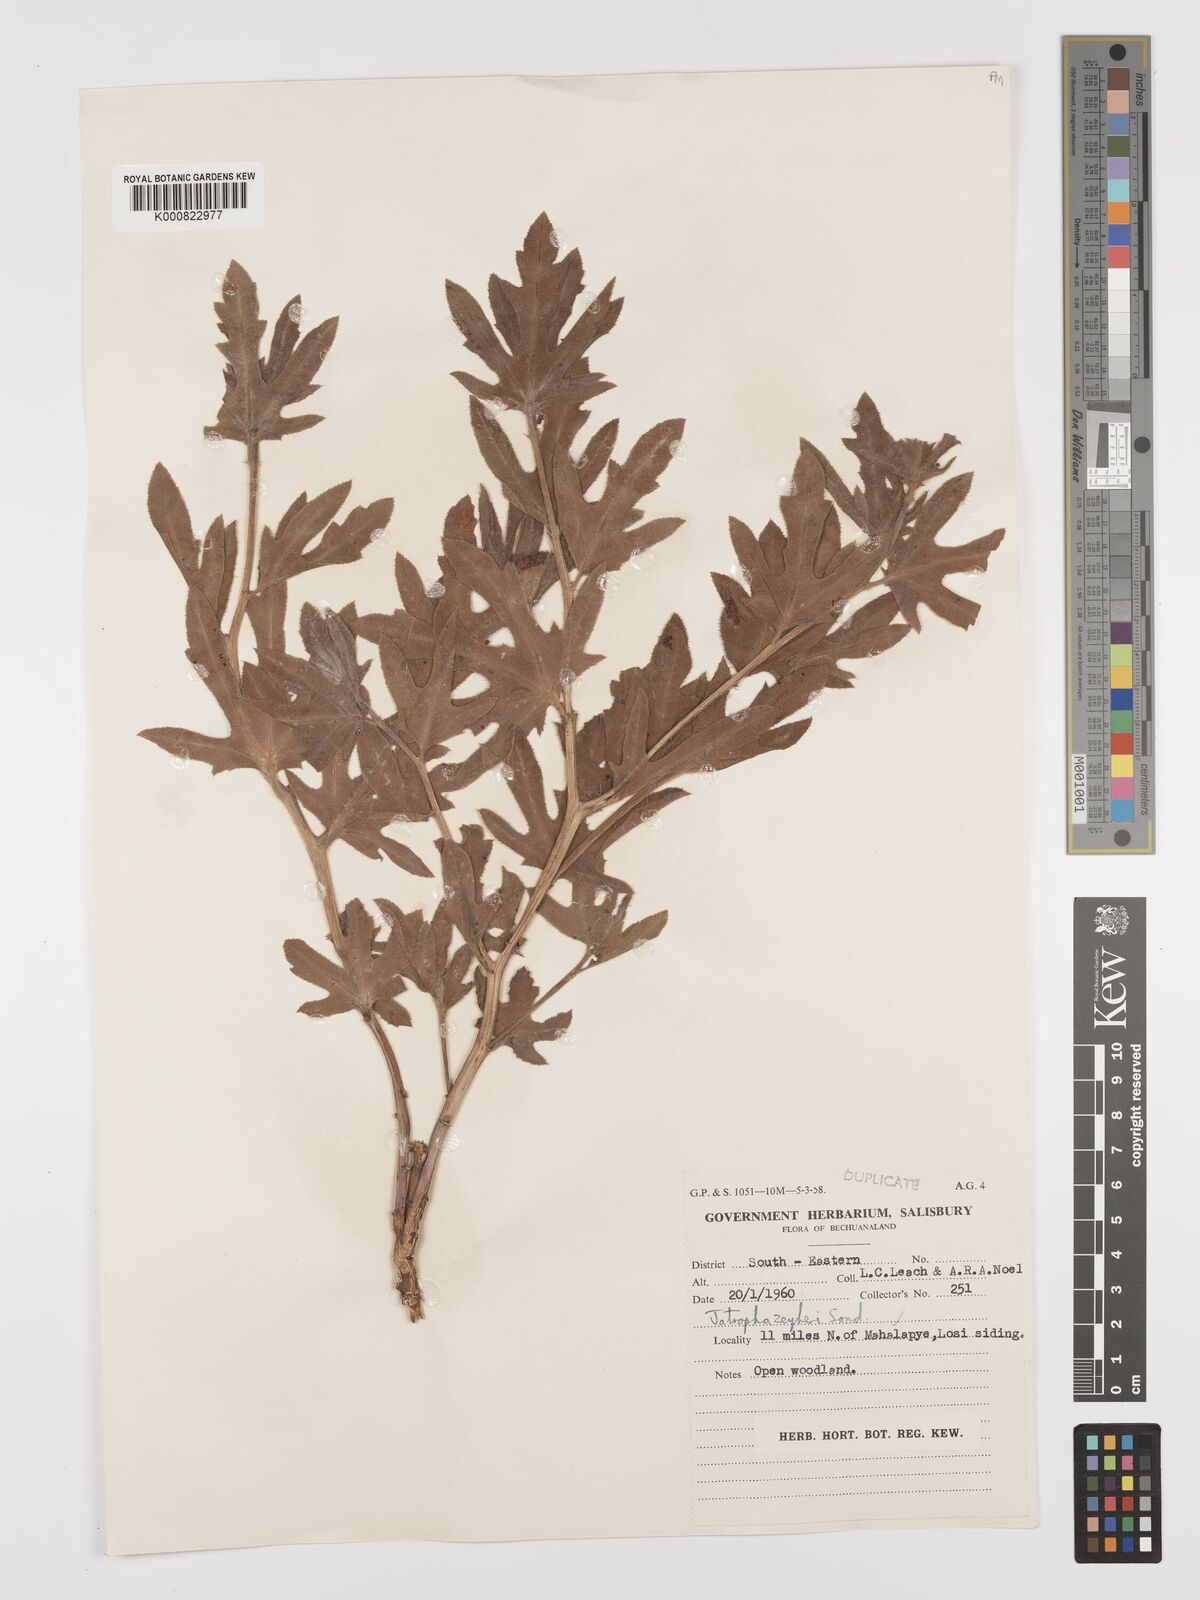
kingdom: Plantae
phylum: Tracheophyta
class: Magnoliopsida
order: Malpighiales
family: Euphorbiaceae
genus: Jatropha
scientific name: Jatropha zeyheri
